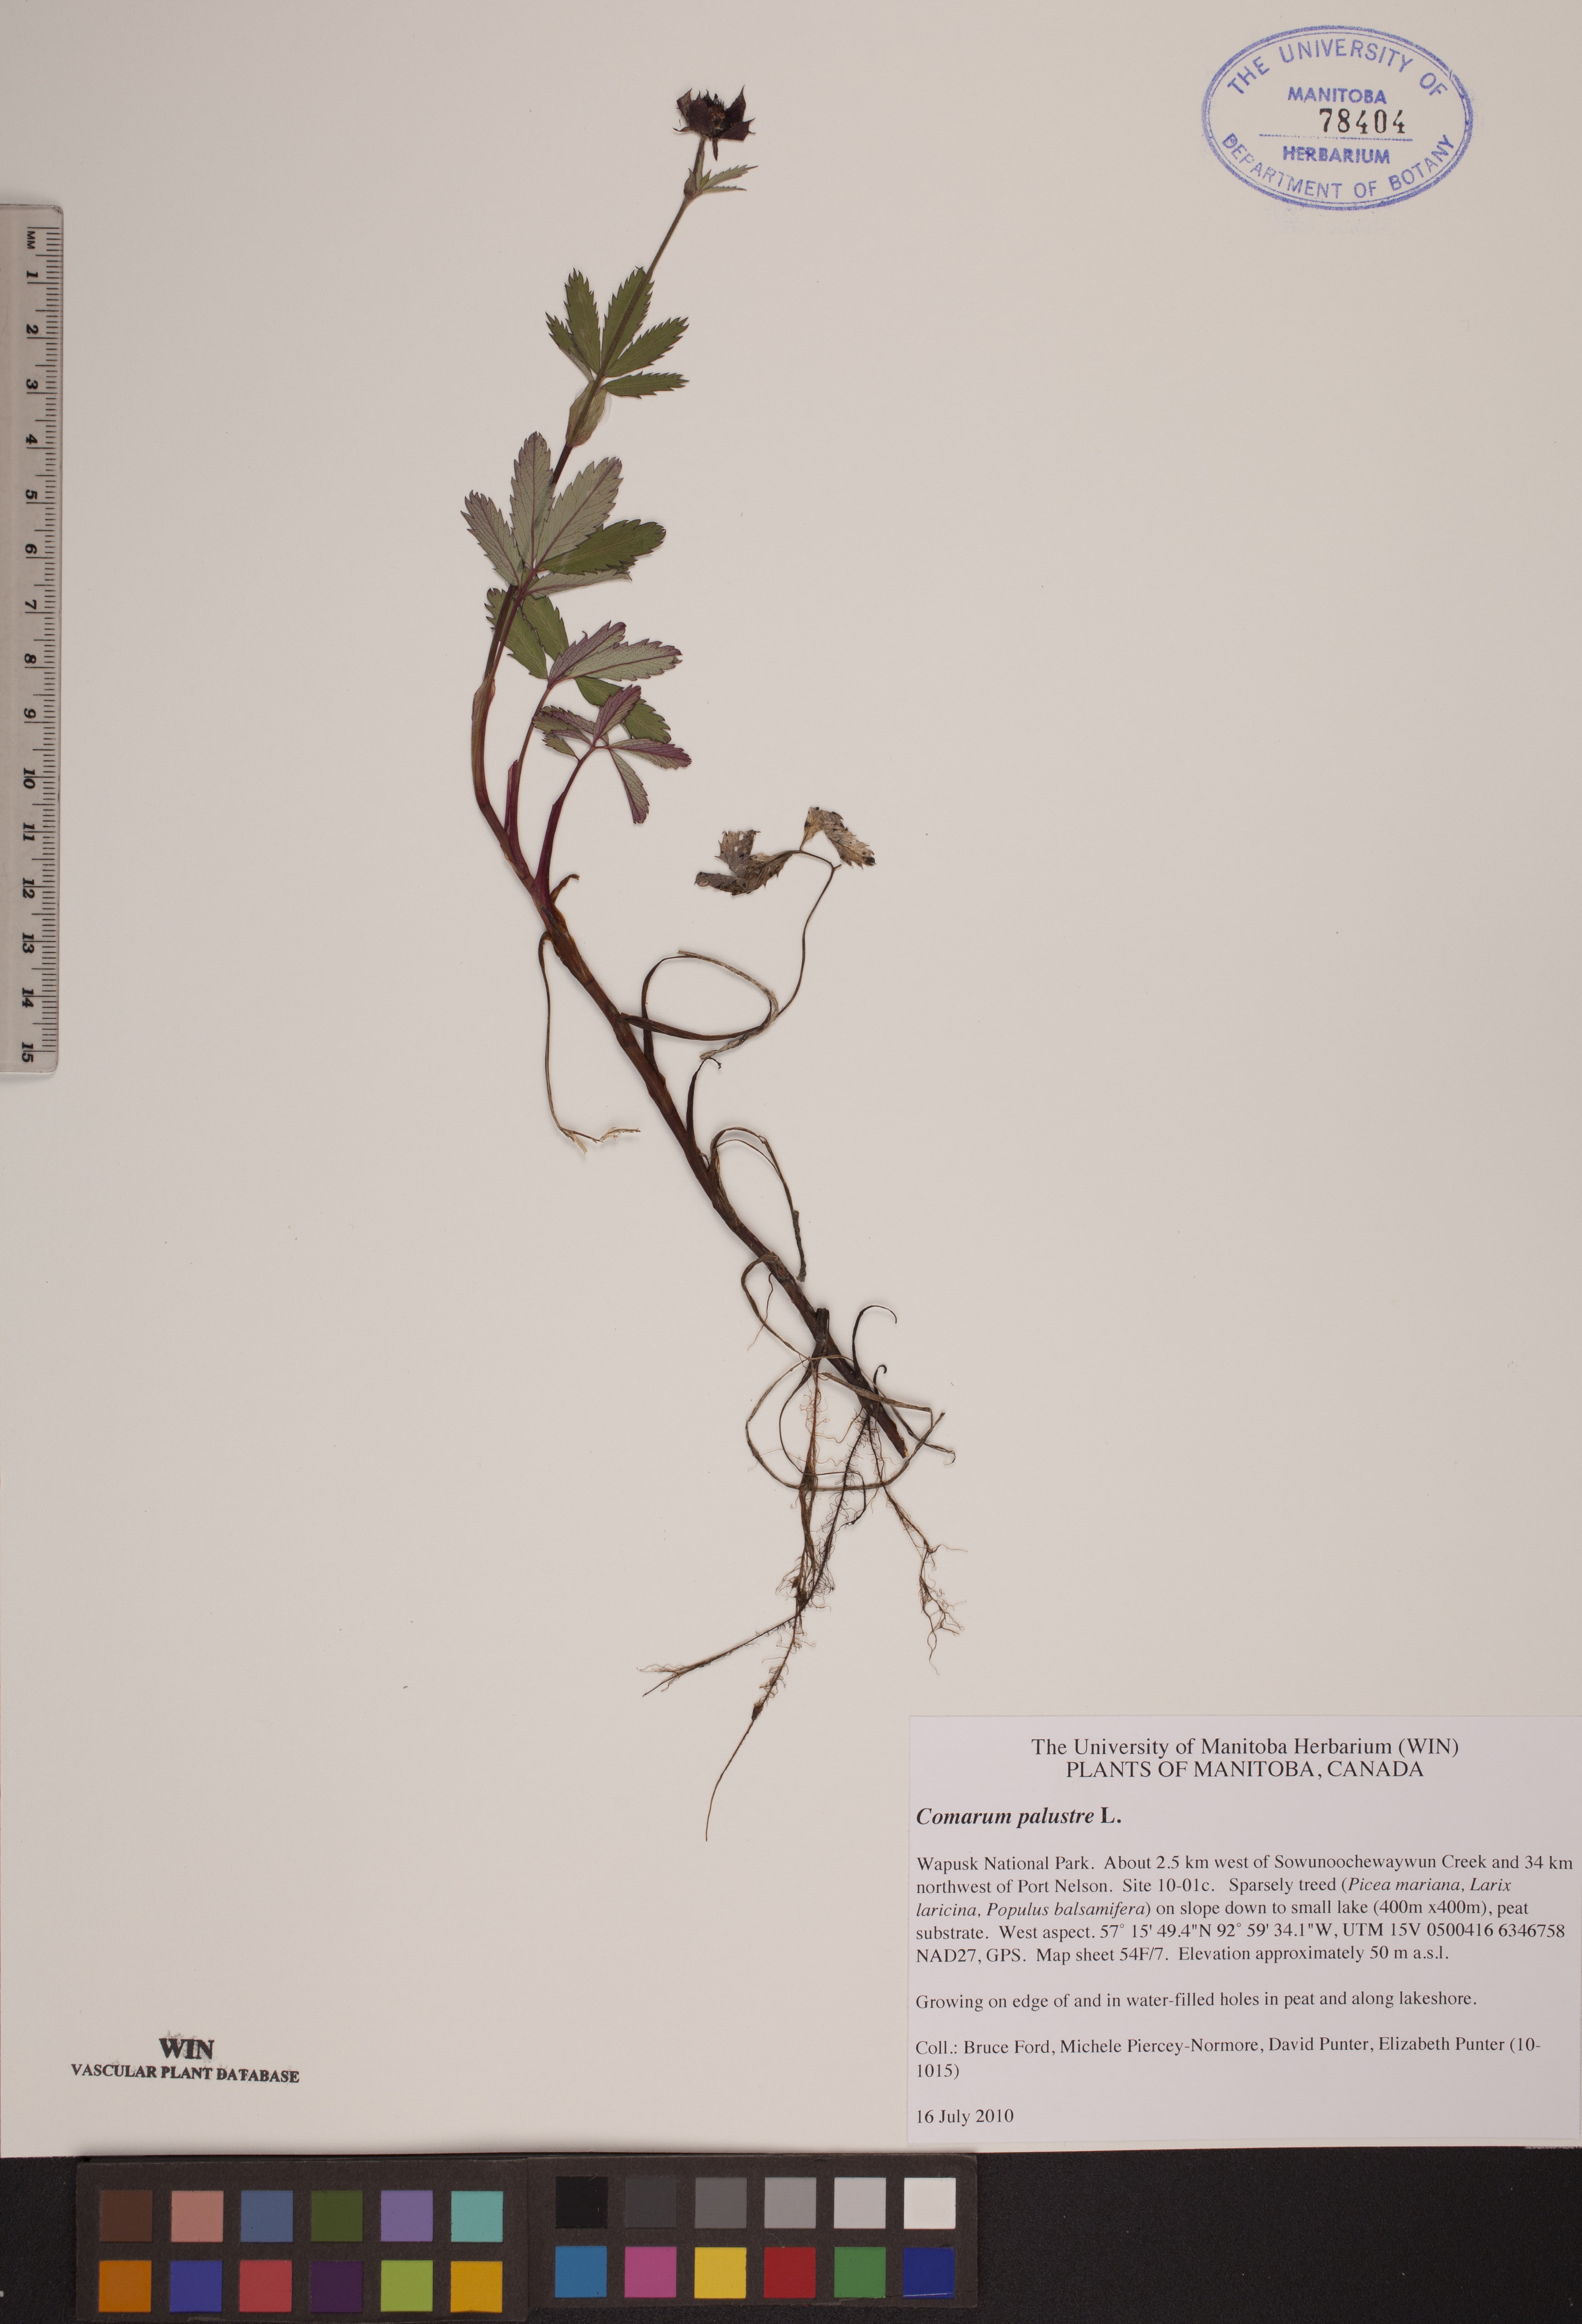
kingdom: Plantae
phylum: Tracheophyta
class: Magnoliopsida
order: Rosales
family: Rosaceae
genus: Comarum
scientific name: Comarum palustre
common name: Marsh cinquefoil
